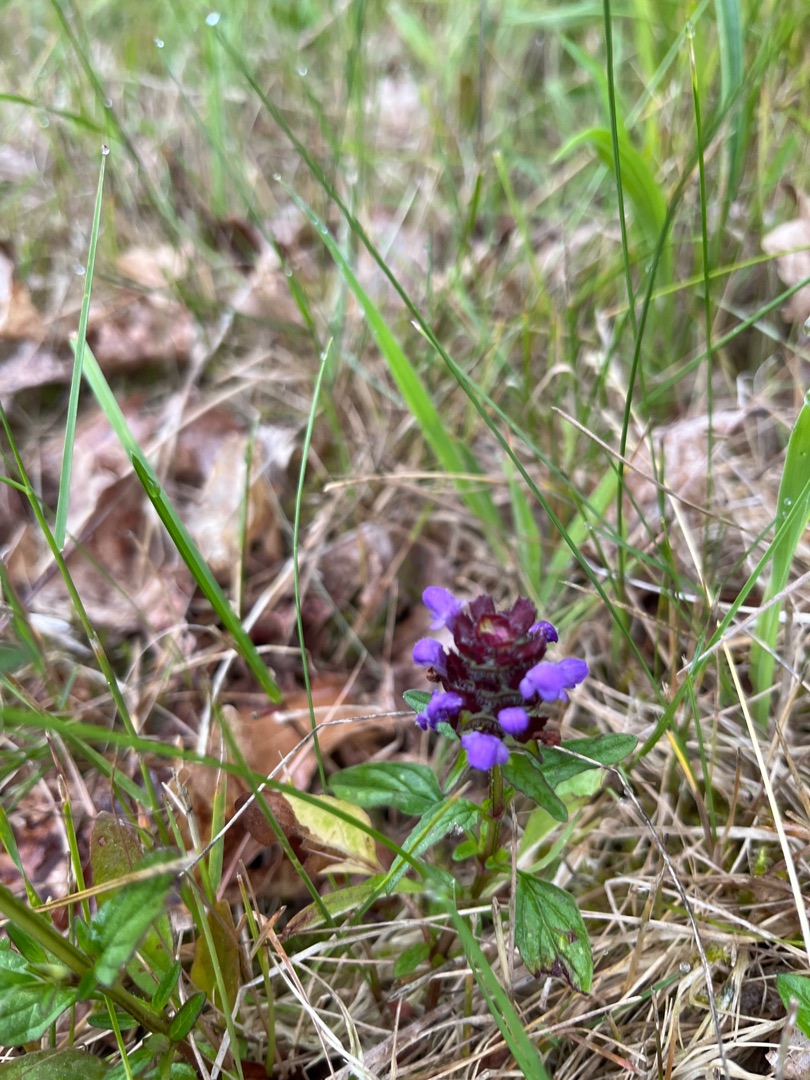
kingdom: Plantae
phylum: Tracheophyta
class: Magnoliopsida
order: Lamiales
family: Lamiaceae
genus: Prunella
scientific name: Prunella vulgaris
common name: Almindelig brunelle
